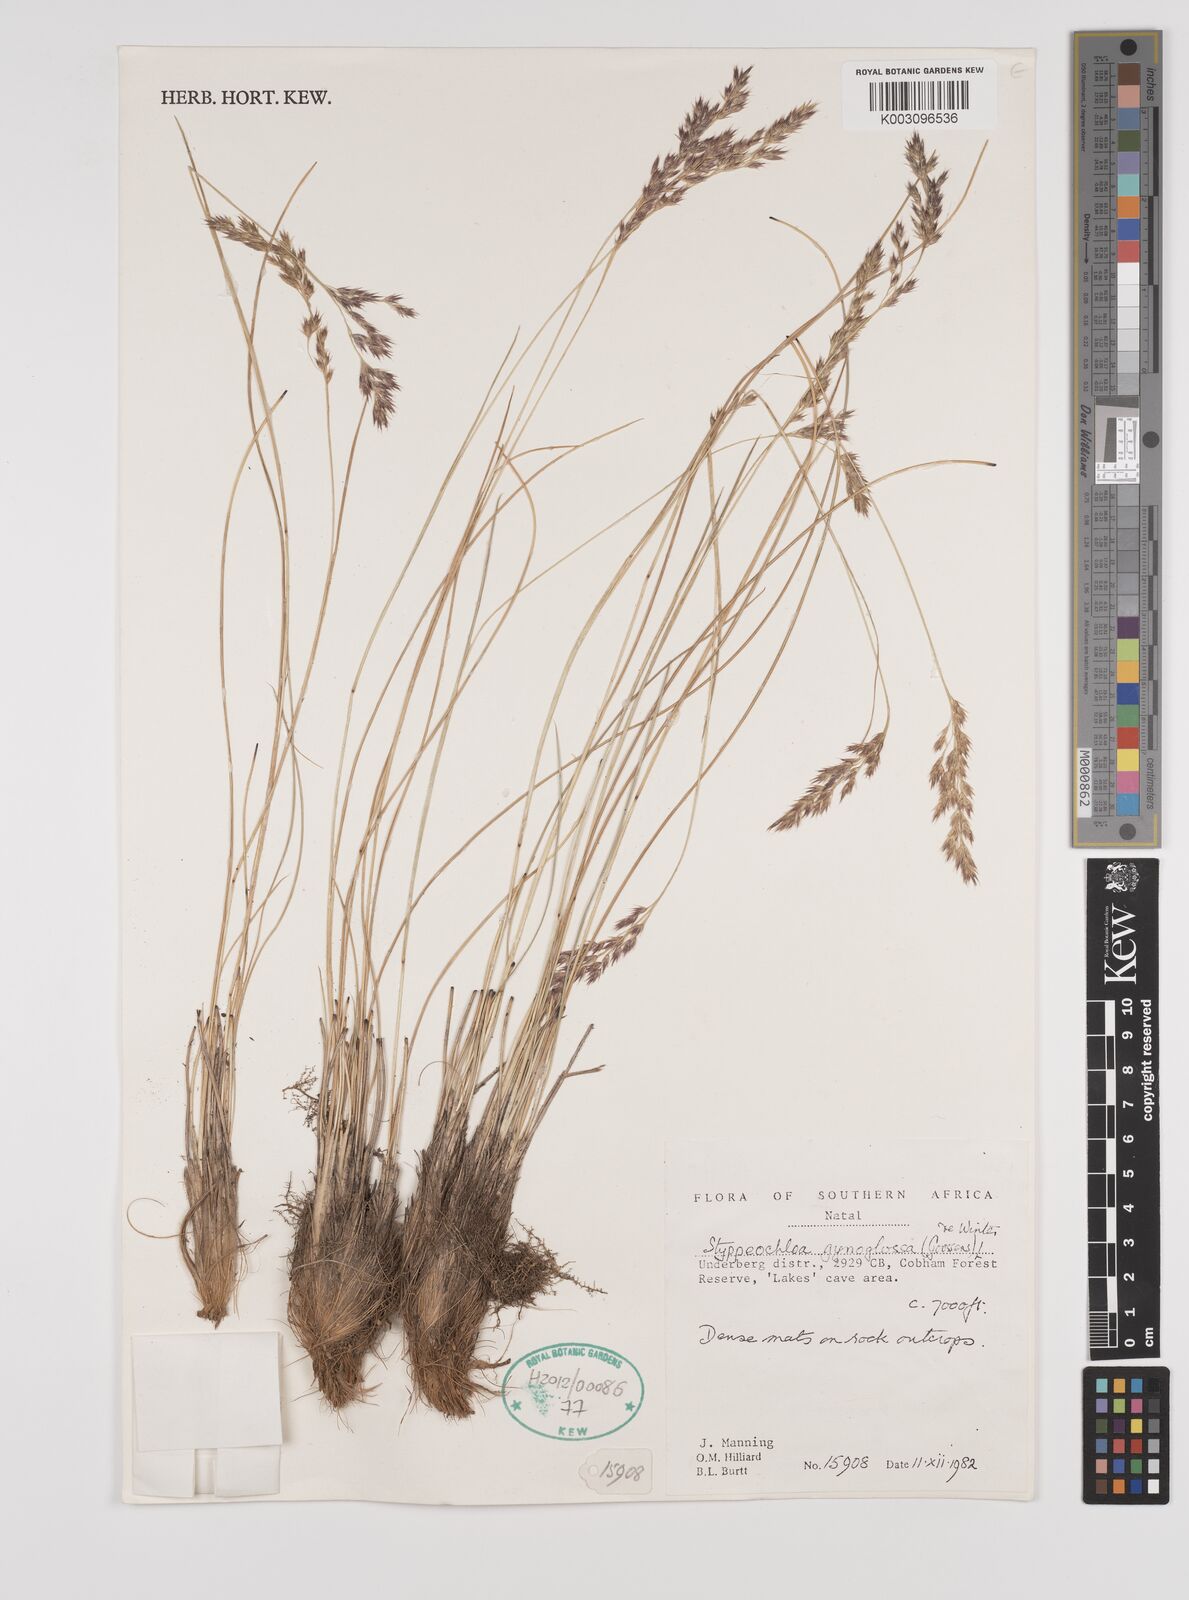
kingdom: Plantae
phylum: Tracheophyta
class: Liliopsida
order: Poales
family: Poaceae
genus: Styppeiochloa
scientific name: Styppeiochloa gynoglossa
